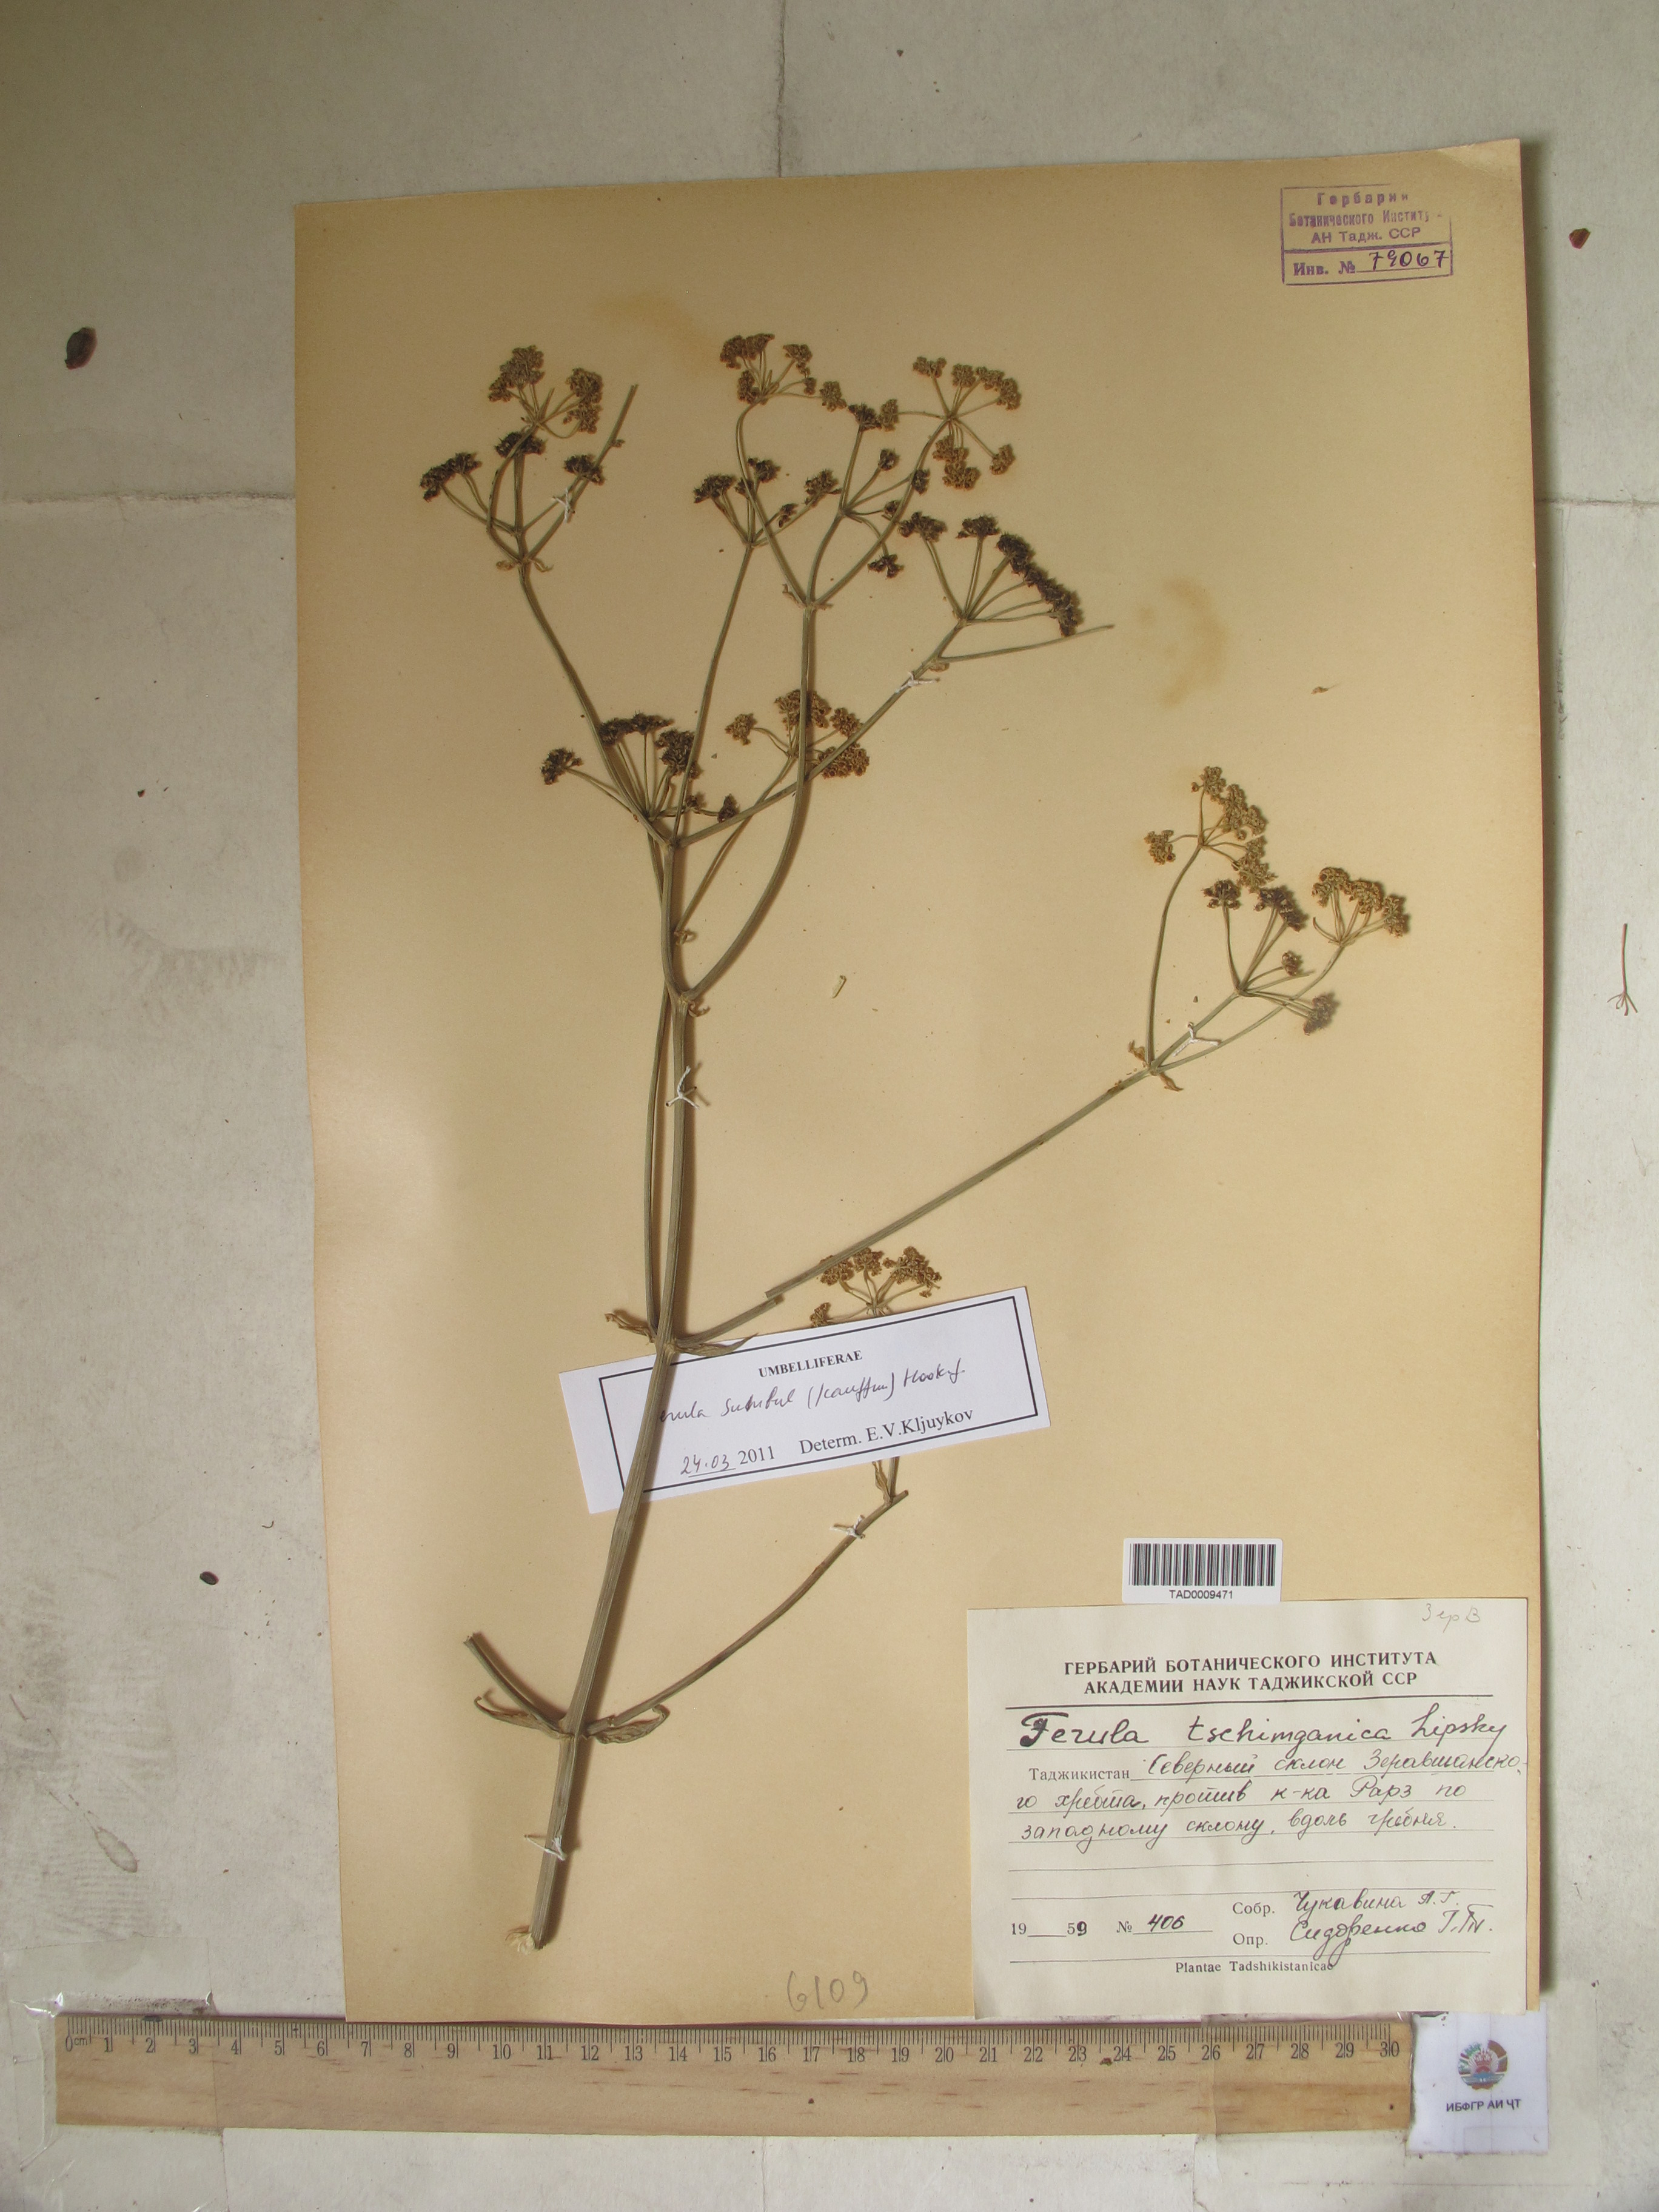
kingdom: Plantae
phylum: Tracheophyta
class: Magnoliopsida
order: Apiales
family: Apiaceae
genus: Ferula
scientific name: Ferula moschata
